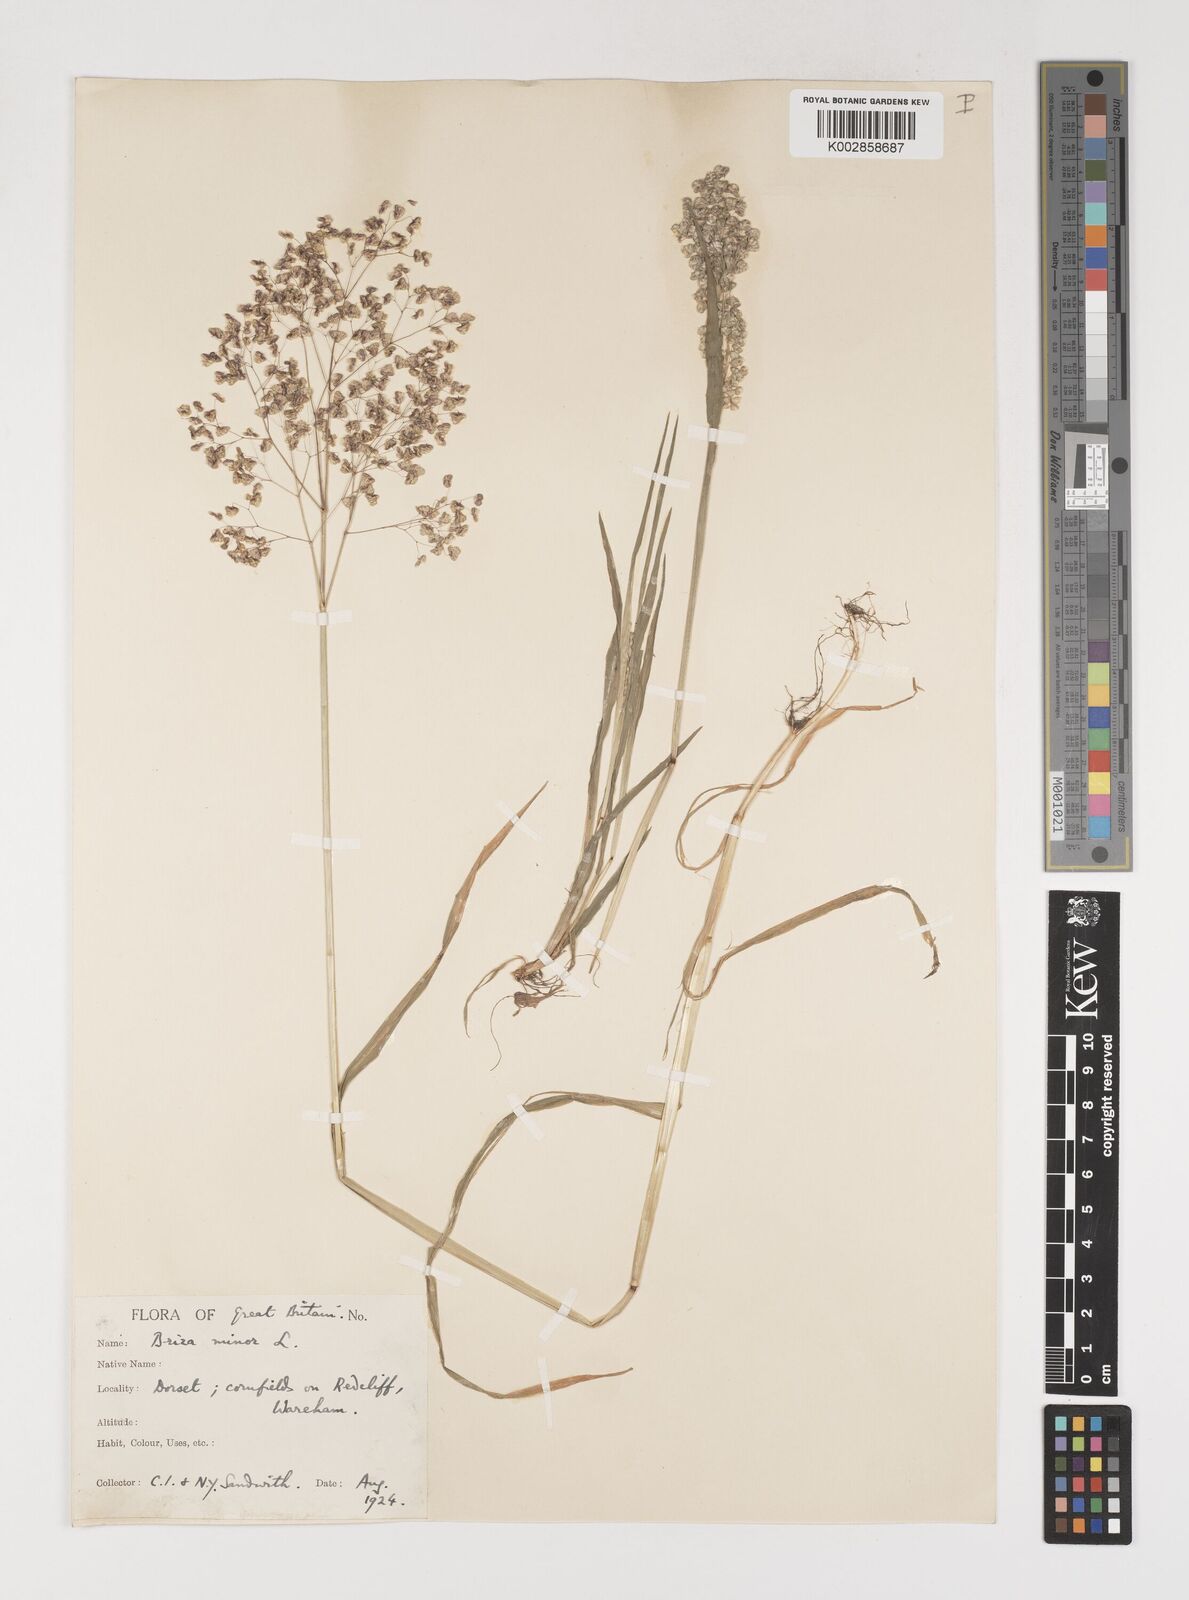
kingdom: Plantae
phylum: Tracheophyta
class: Liliopsida
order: Poales
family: Poaceae
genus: Briza
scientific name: Briza minor
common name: Lesser quaking-grass
